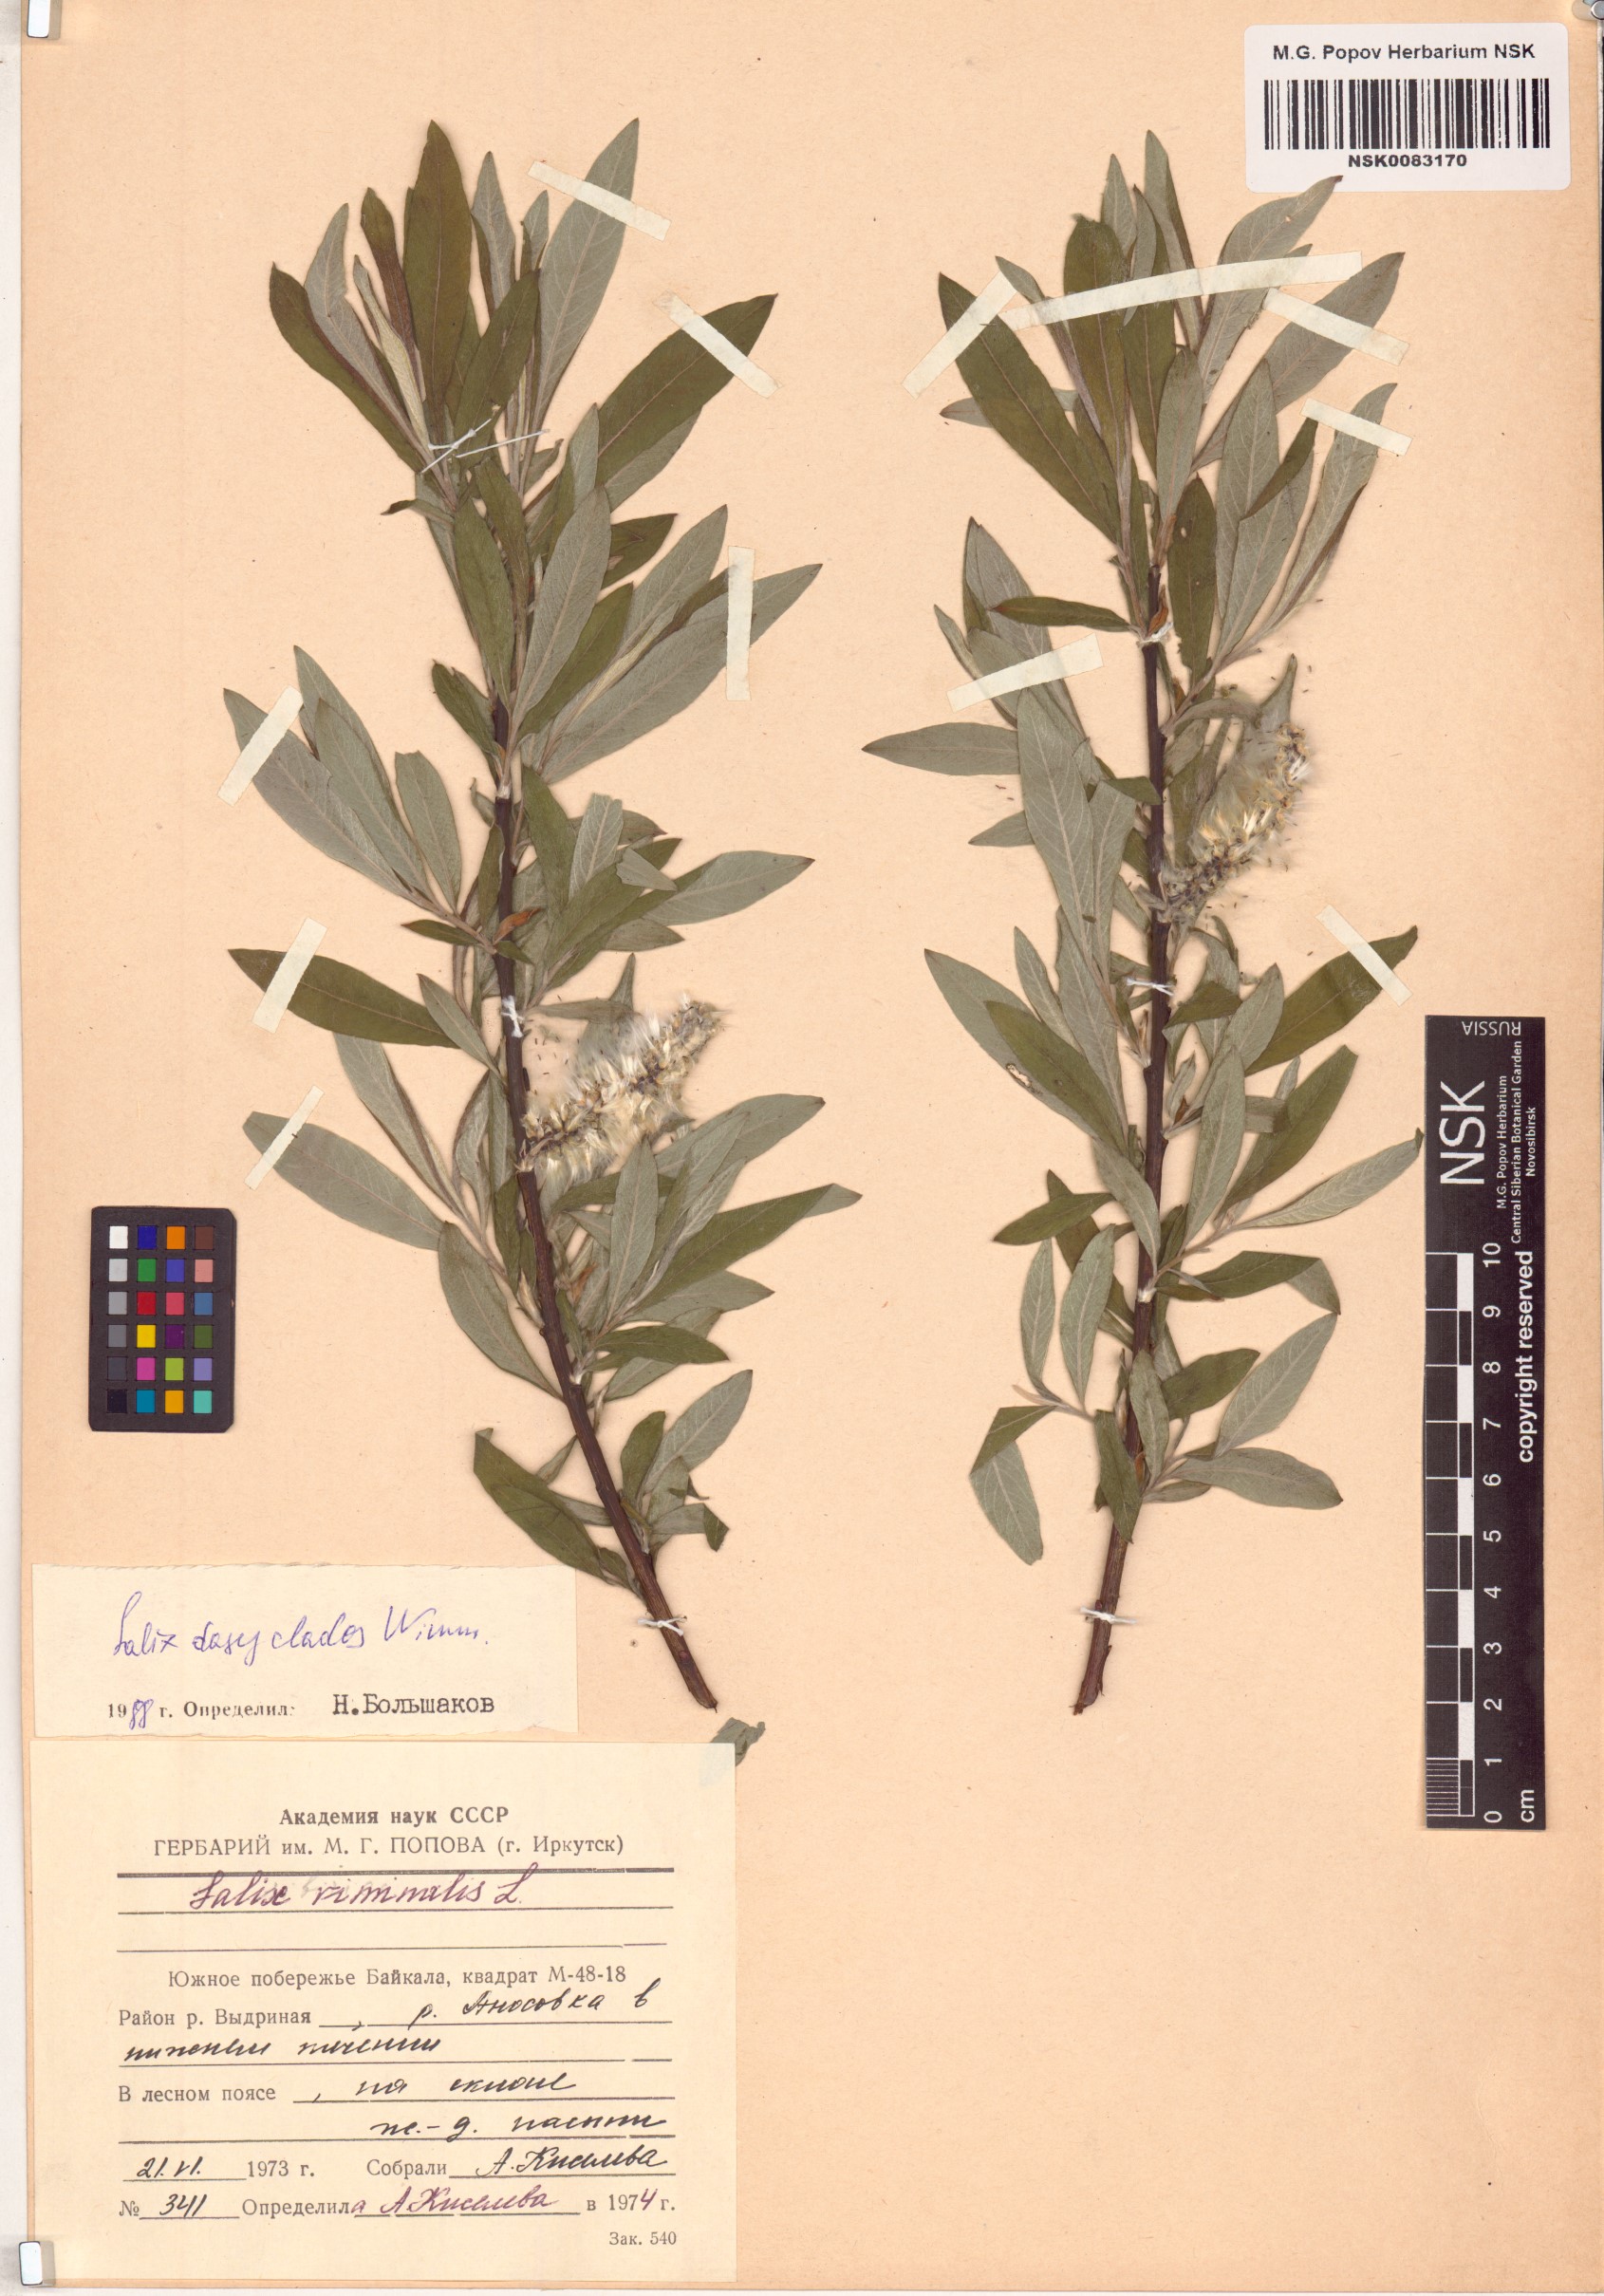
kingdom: Plantae
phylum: Tracheophyta
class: Magnoliopsida
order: Malpighiales
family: Salicaceae
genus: Salix
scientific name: Salix gmelinii
